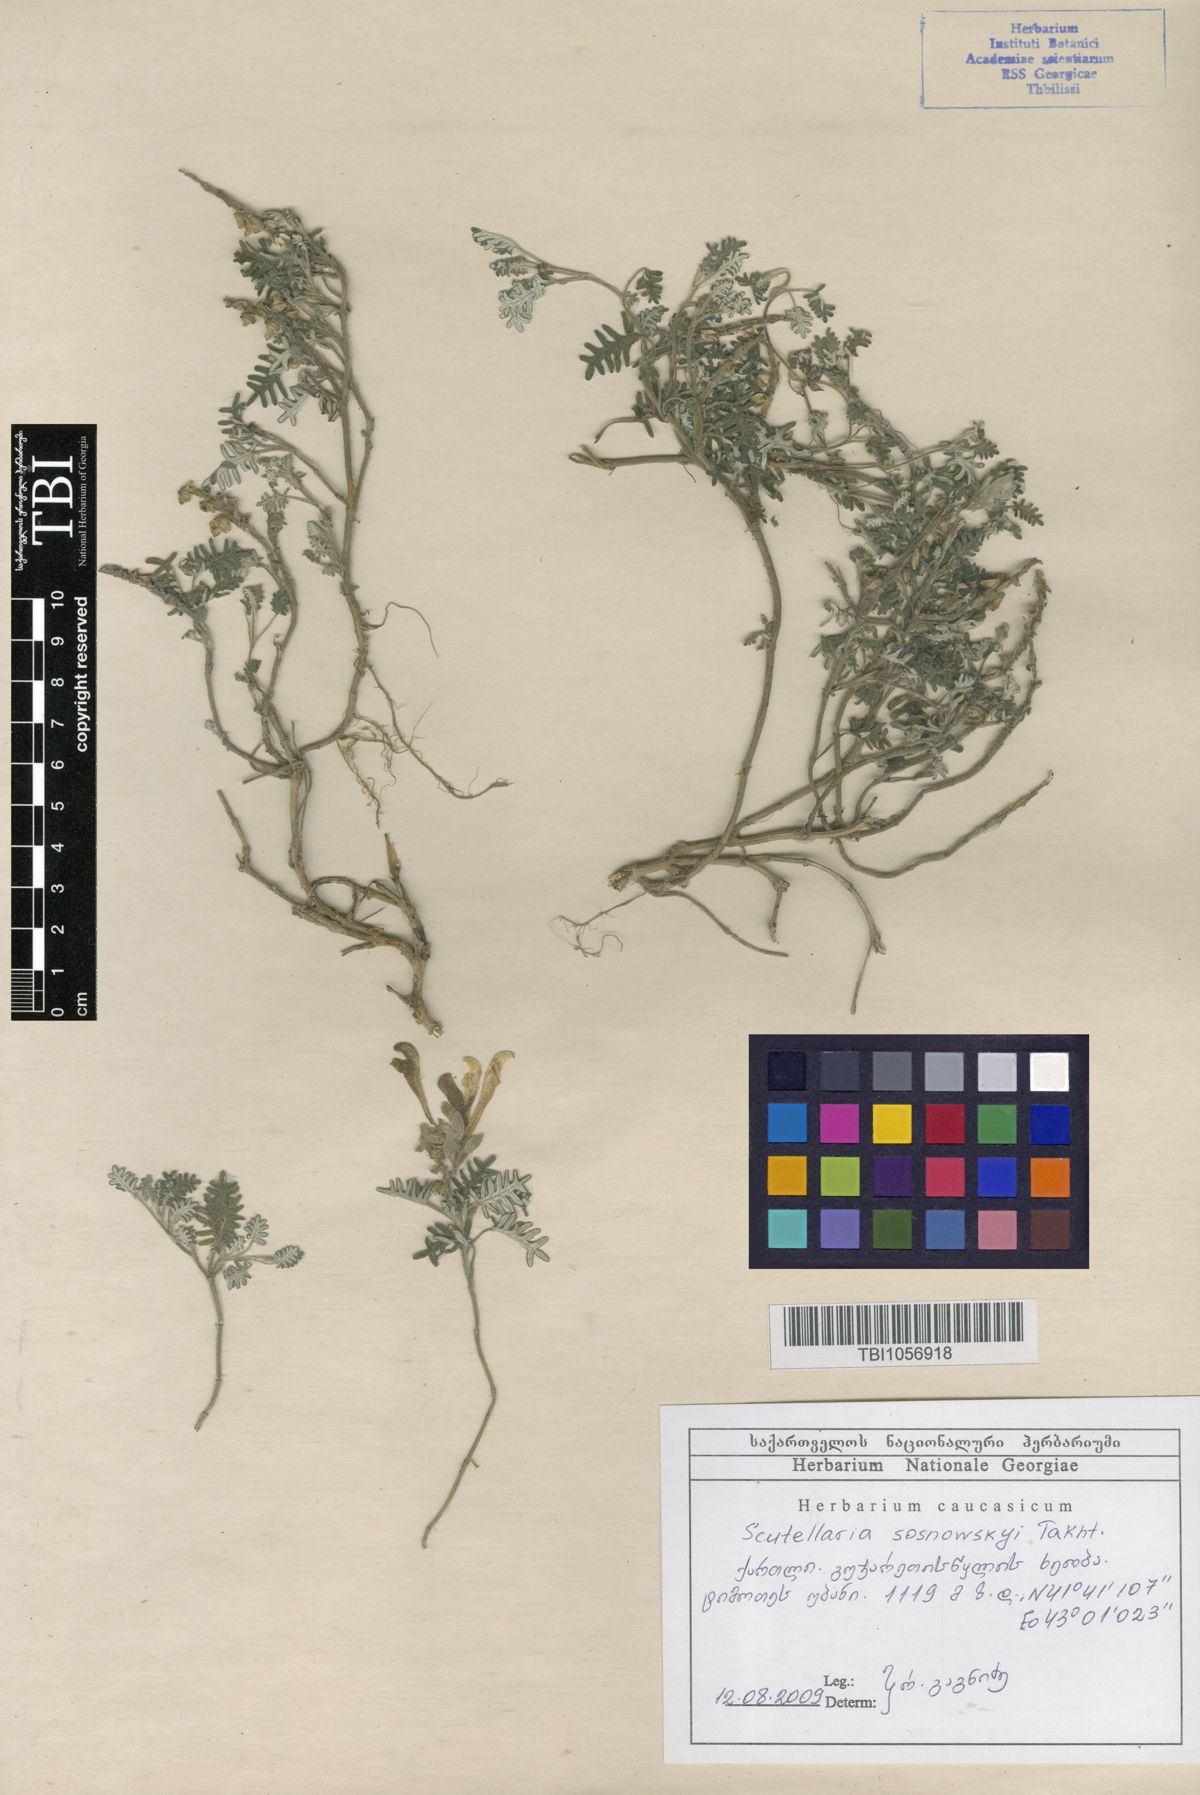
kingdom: Plantae
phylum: Tracheophyta
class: Magnoliopsida
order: Lamiales
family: Lamiaceae
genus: Scutellaria
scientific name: Scutellaria sosnowskyi
